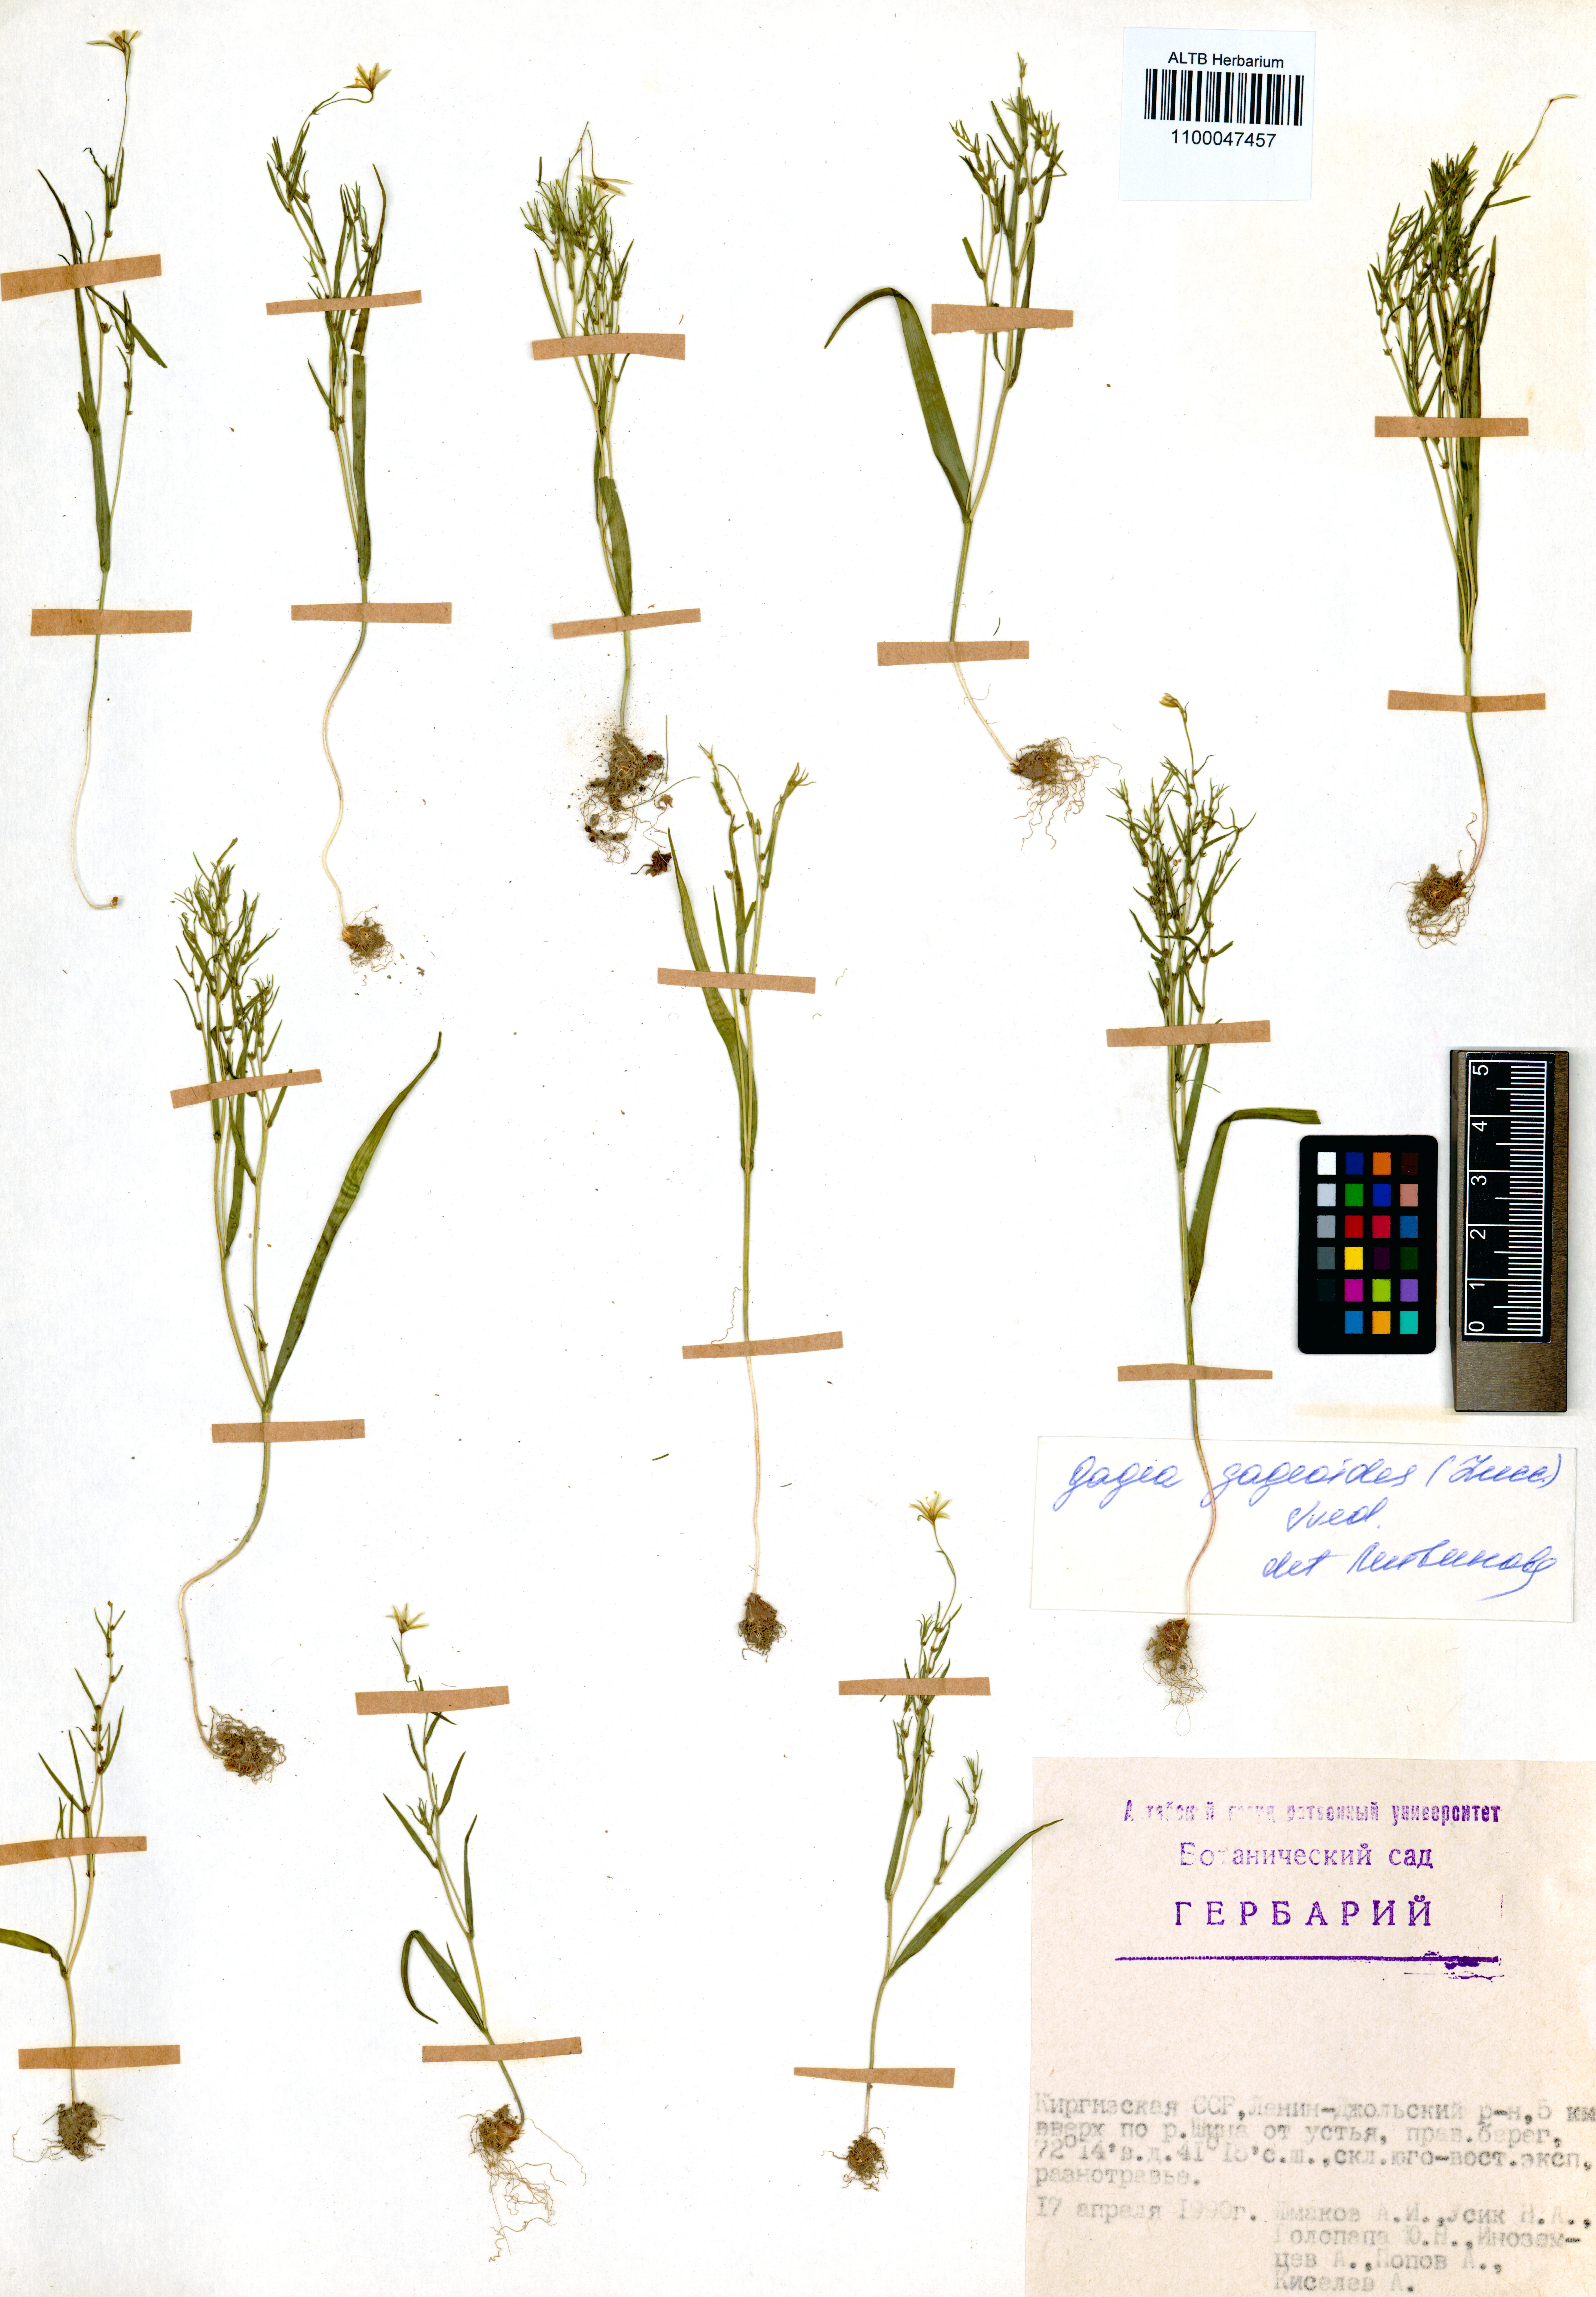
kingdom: Plantae
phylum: Tracheophyta
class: Liliopsida
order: Liliales
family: Liliaceae
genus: Gagea
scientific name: Gagea gageoides
